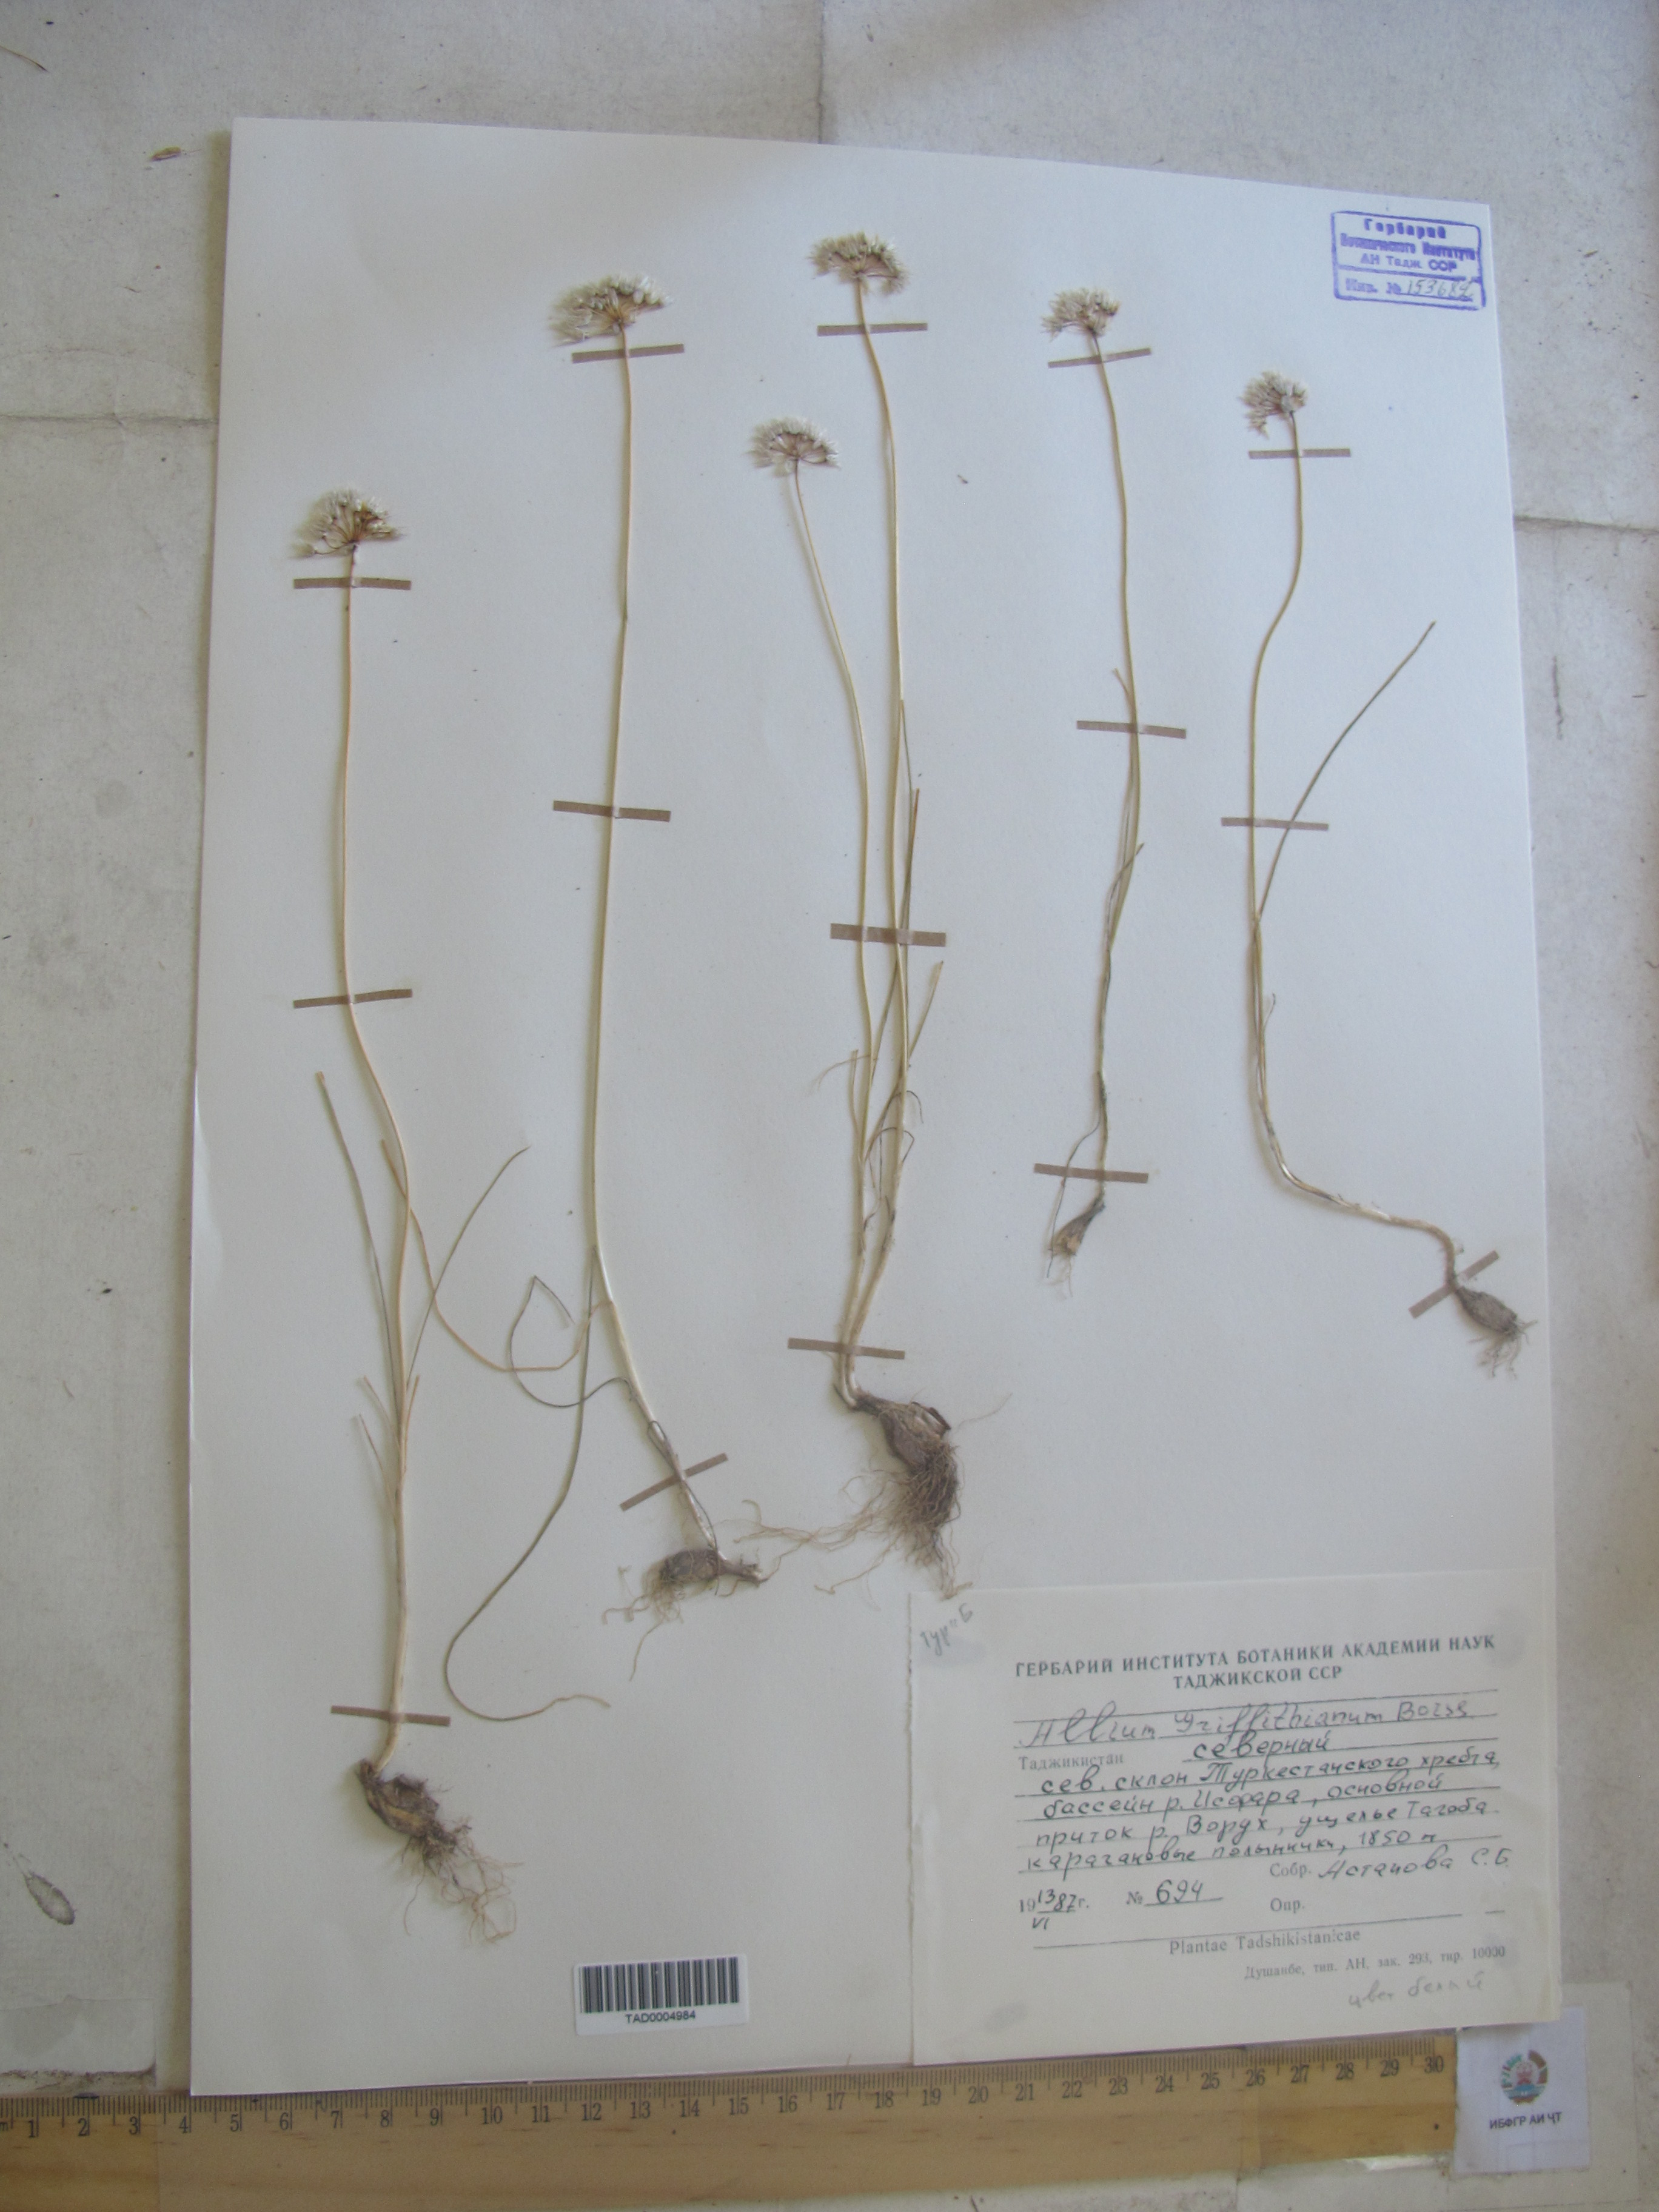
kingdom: Plantae
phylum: Tracheophyta
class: Liliopsida
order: Asparagales
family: Amaryllidaceae
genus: Allium
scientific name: Allium griffithianum
